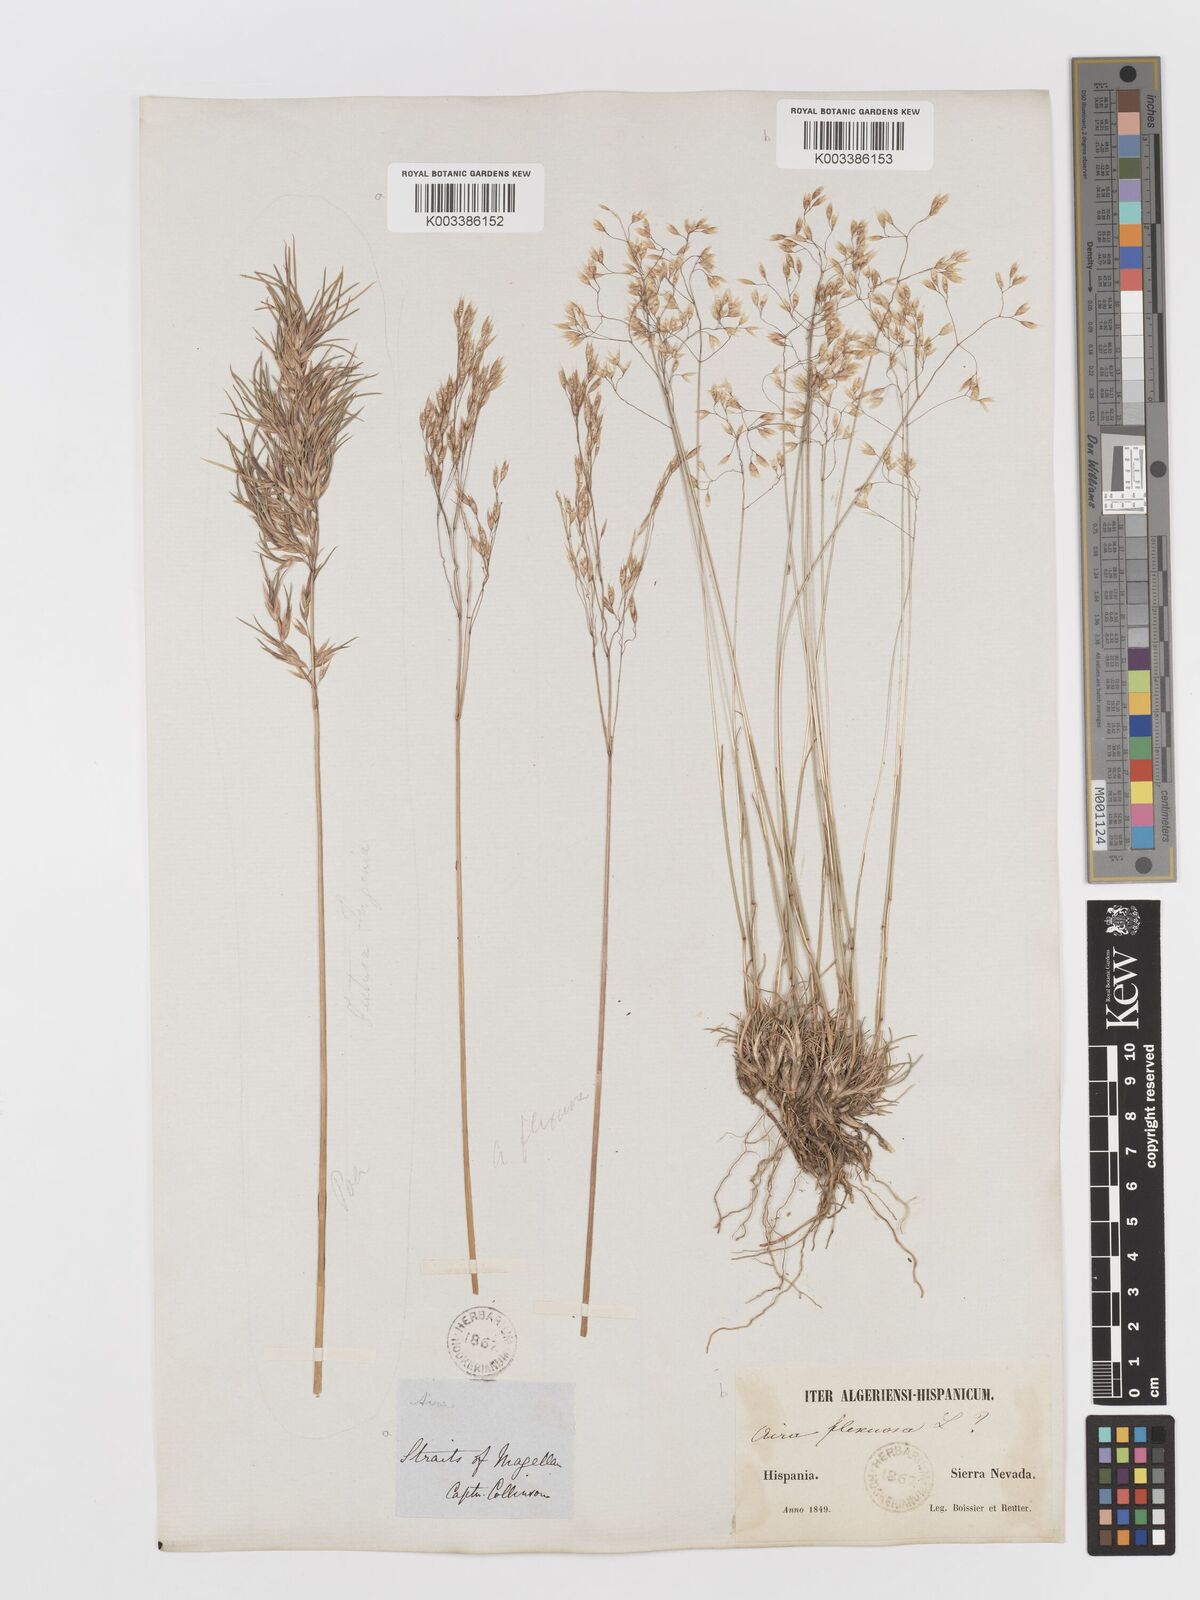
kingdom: Plantae
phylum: Tracheophyta
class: Liliopsida
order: Poales
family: Poaceae
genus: Avenella
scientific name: Avenella flexuosa
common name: Wavy hairgrass
